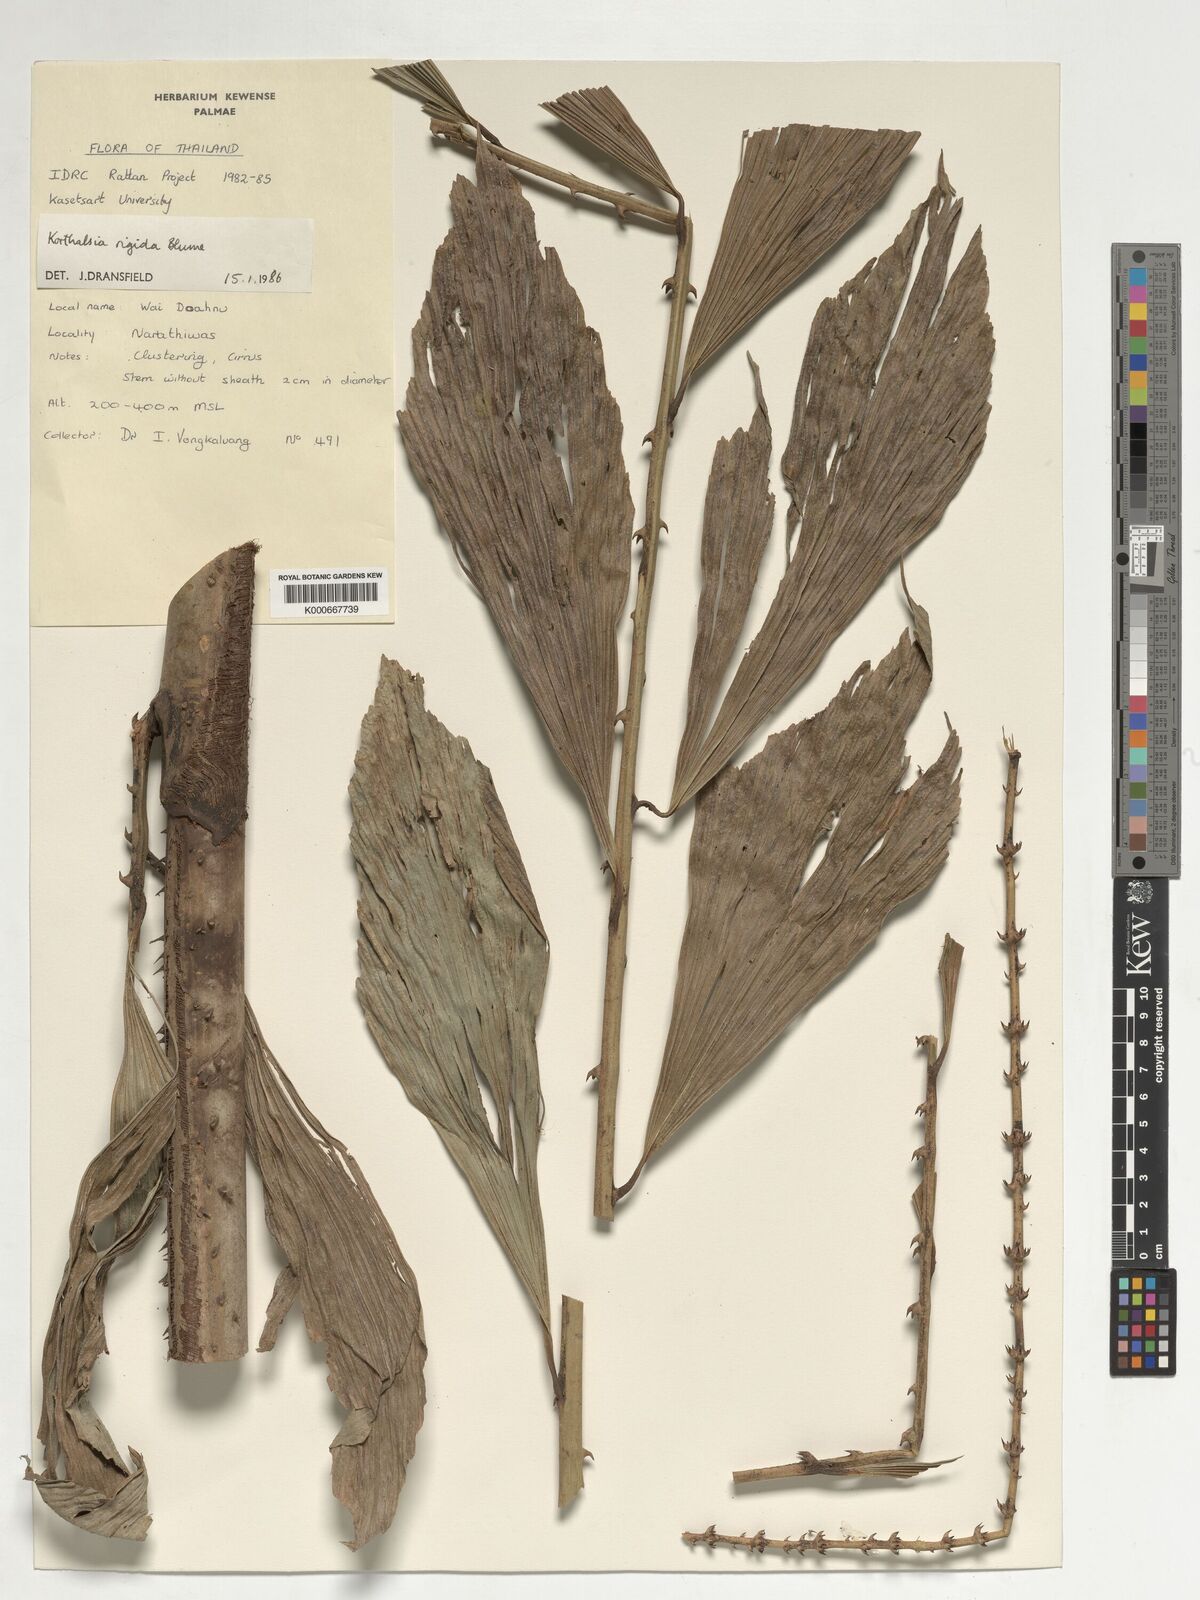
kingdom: Plantae
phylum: Tracheophyta
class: Liliopsida
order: Arecales
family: Arecaceae
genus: Korthalsia
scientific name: Korthalsia rigida
